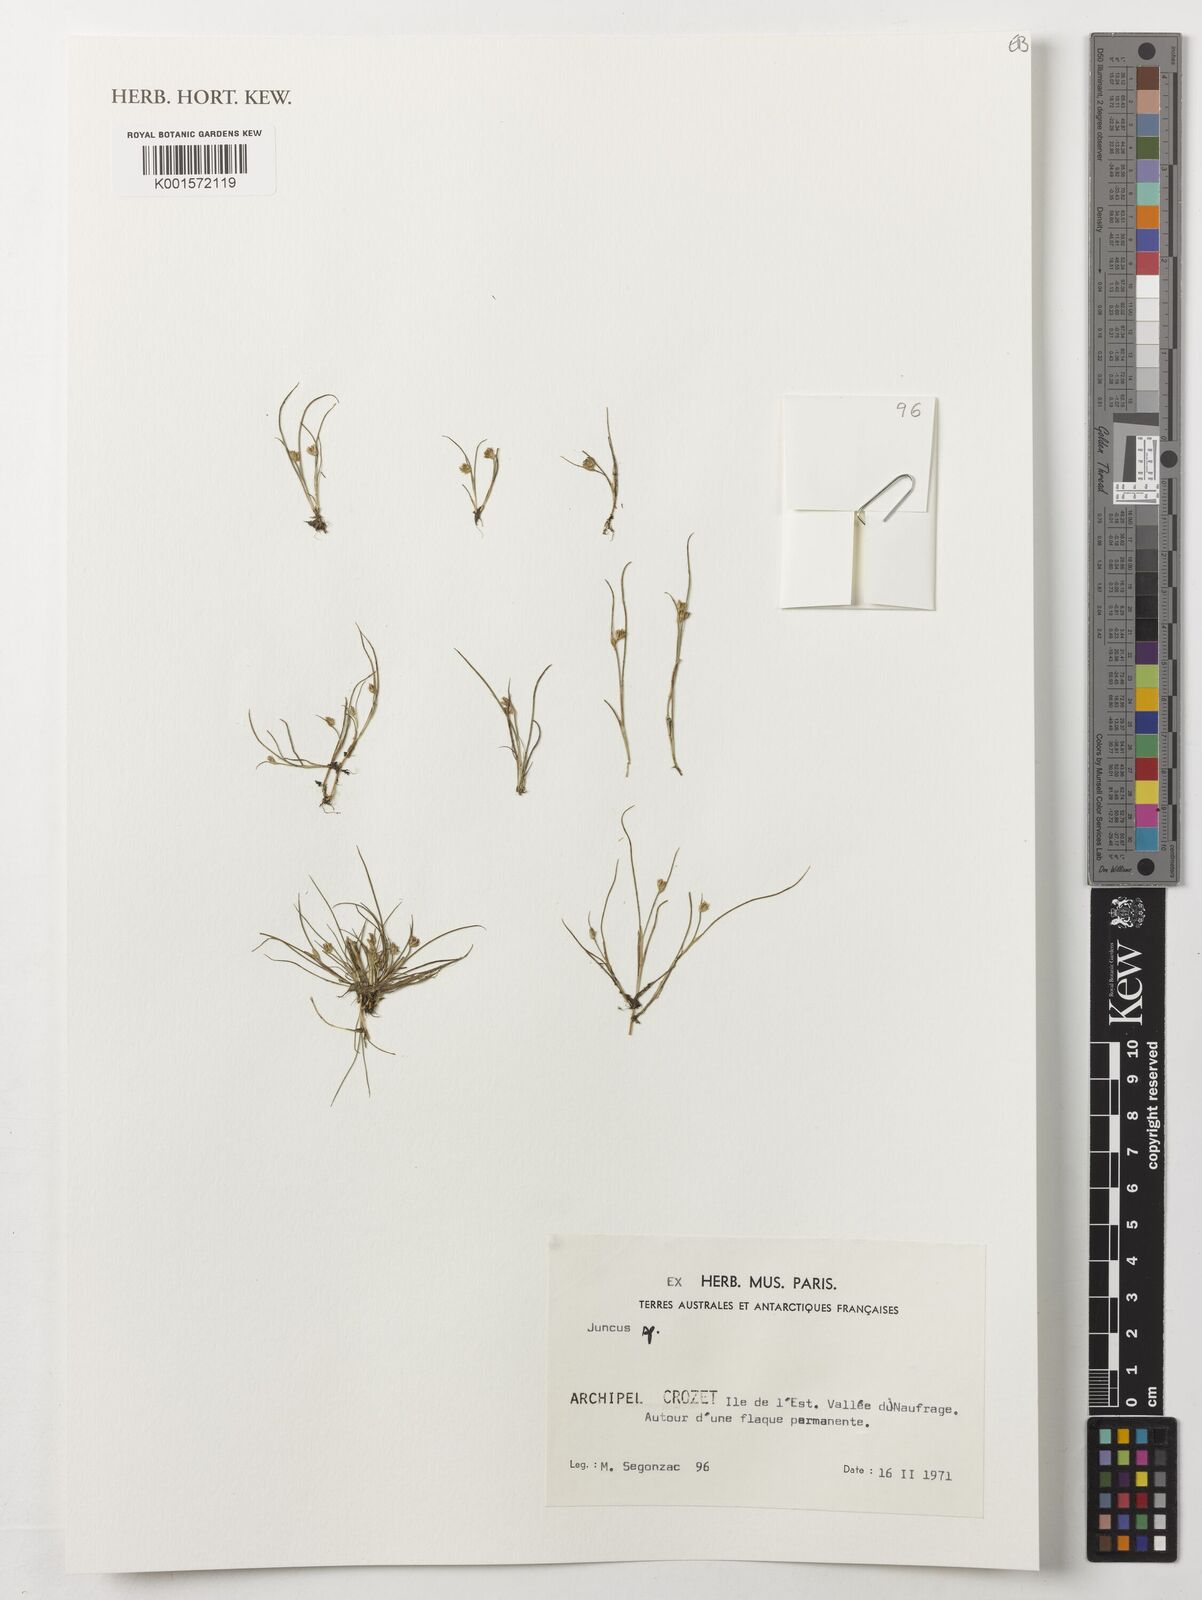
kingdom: Plantae
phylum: Tracheophyta
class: Liliopsida
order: Poales
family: Juncaceae
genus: Juncus
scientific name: Juncus
